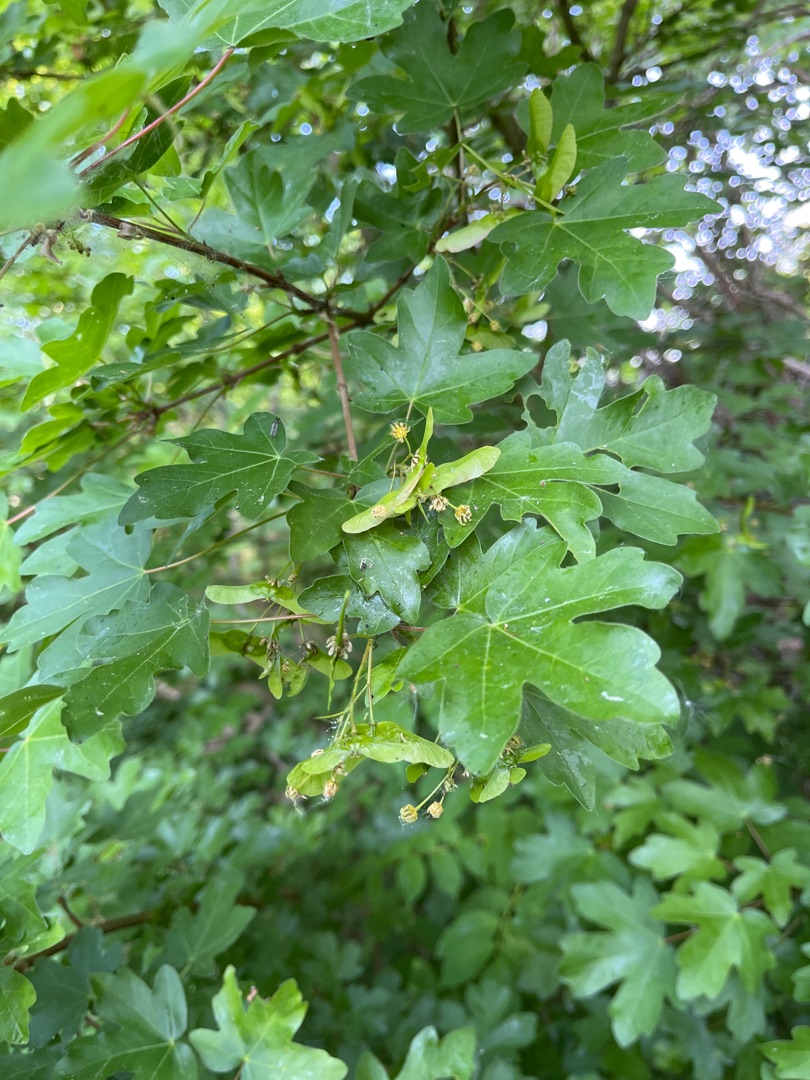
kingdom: Plantae
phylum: Tracheophyta
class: Magnoliopsida
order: Sapindales
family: Sapindaceae
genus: Acer
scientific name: Acer campestre
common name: Navr
